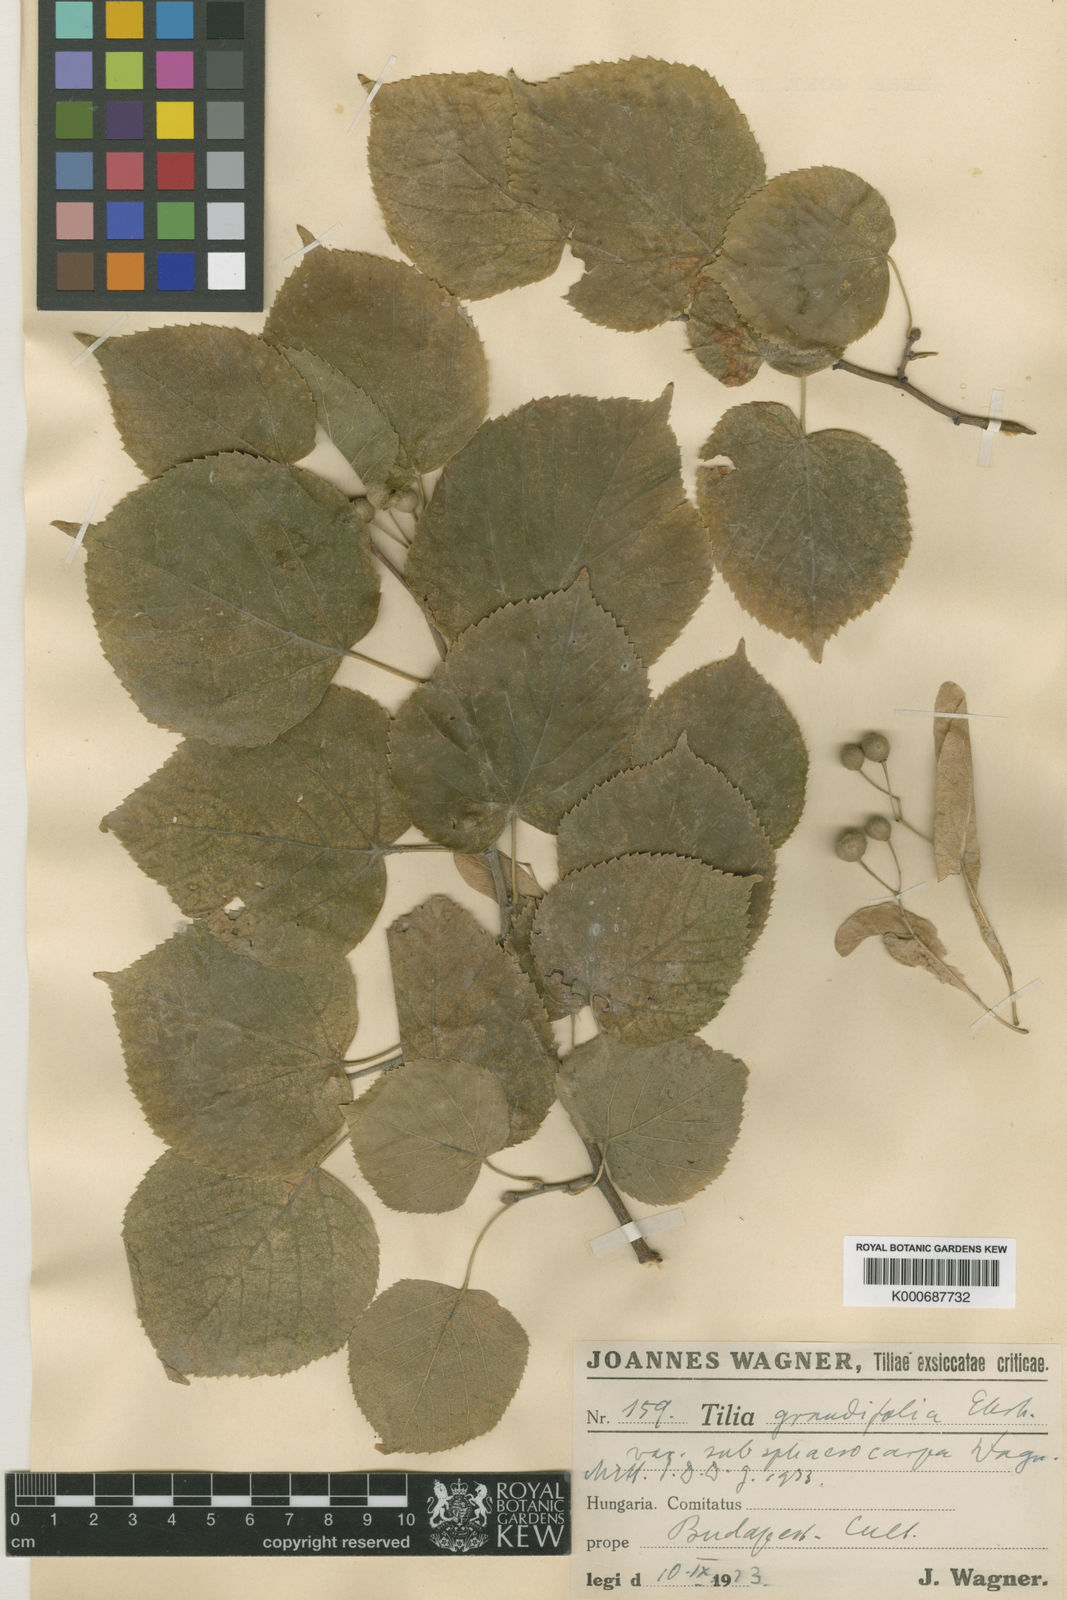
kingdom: Plantae
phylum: Tracheophyta
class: Magnoliopsida
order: Malvales
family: Malvaceae
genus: Tilia
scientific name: Tilia platyphyllos
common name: Large-leaved lime
